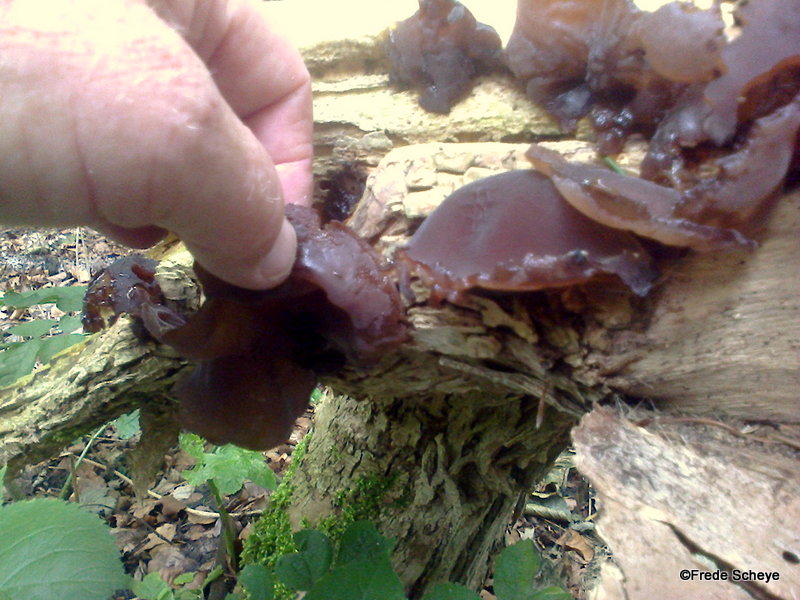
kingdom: Fungi
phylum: Basidiomycota
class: Agaricomycetes
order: Auriculariales
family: Auriculariaceae
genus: Auricularia
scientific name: Auricularia auricula-judae
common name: almindelig judasøre
